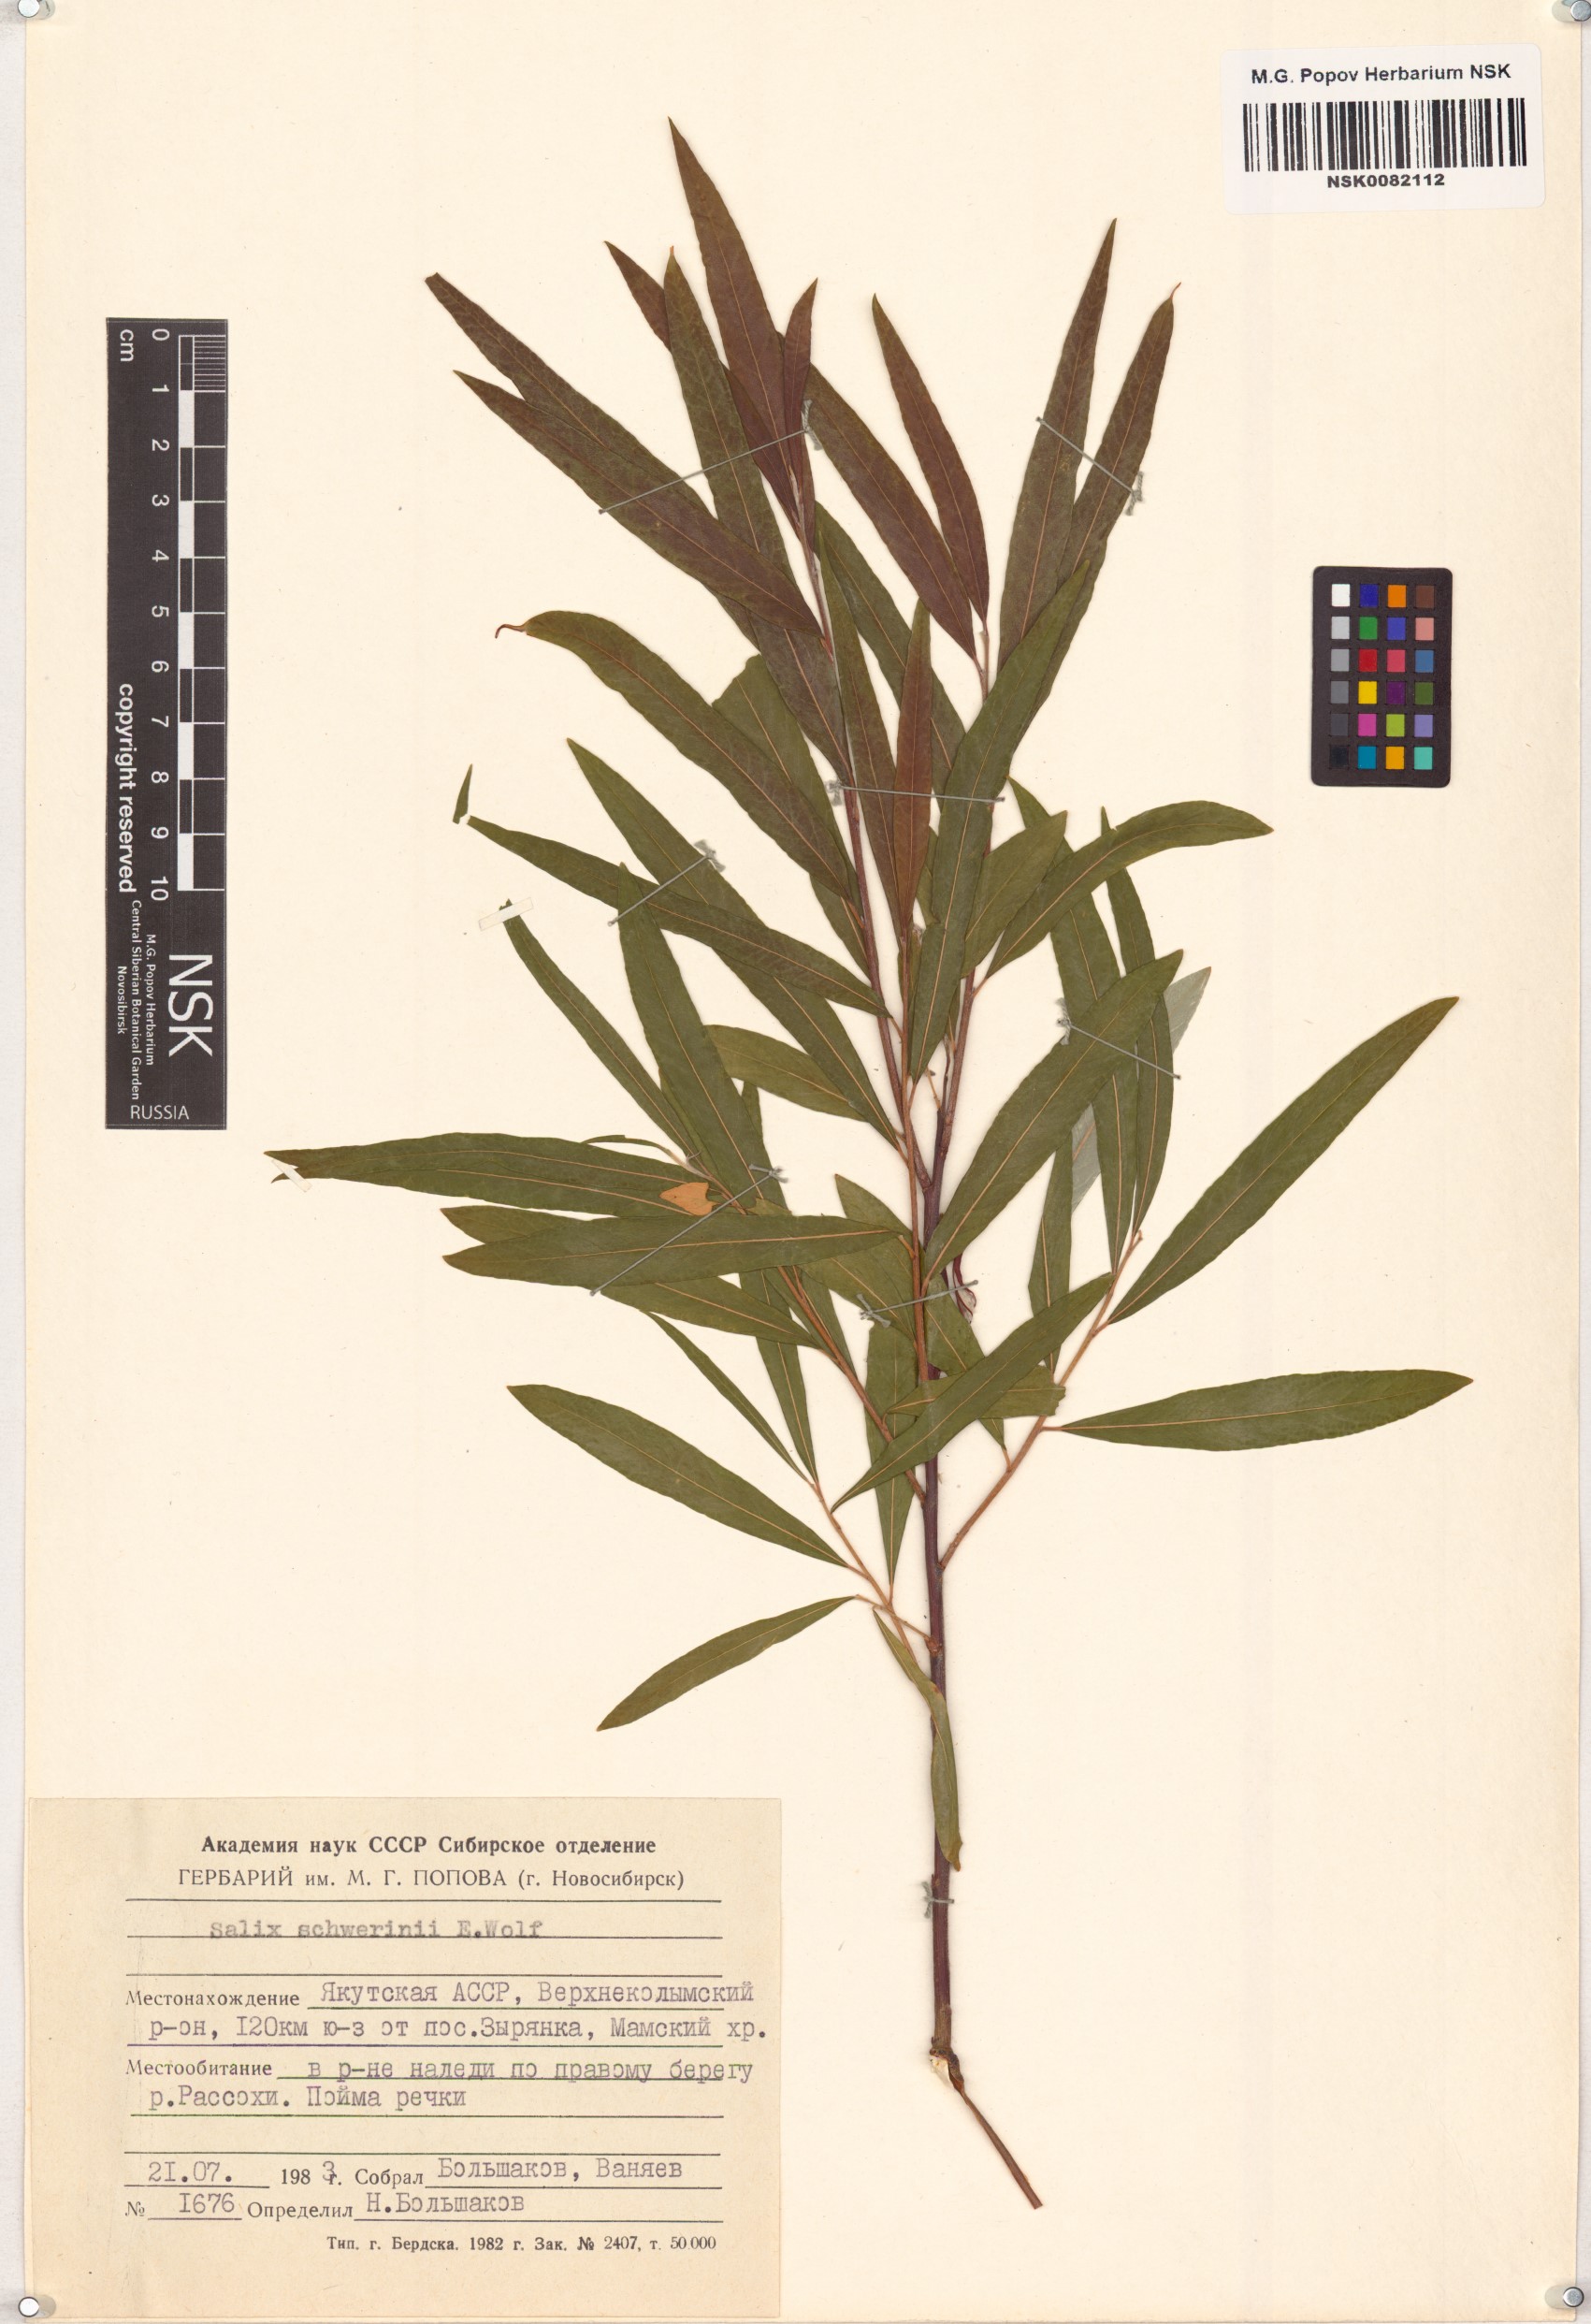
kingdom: Plantae
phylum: Tracheophyta
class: Magnoliopsida
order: Malpighiales
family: Salicaceae
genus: Salix
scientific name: Salix schwerinii
